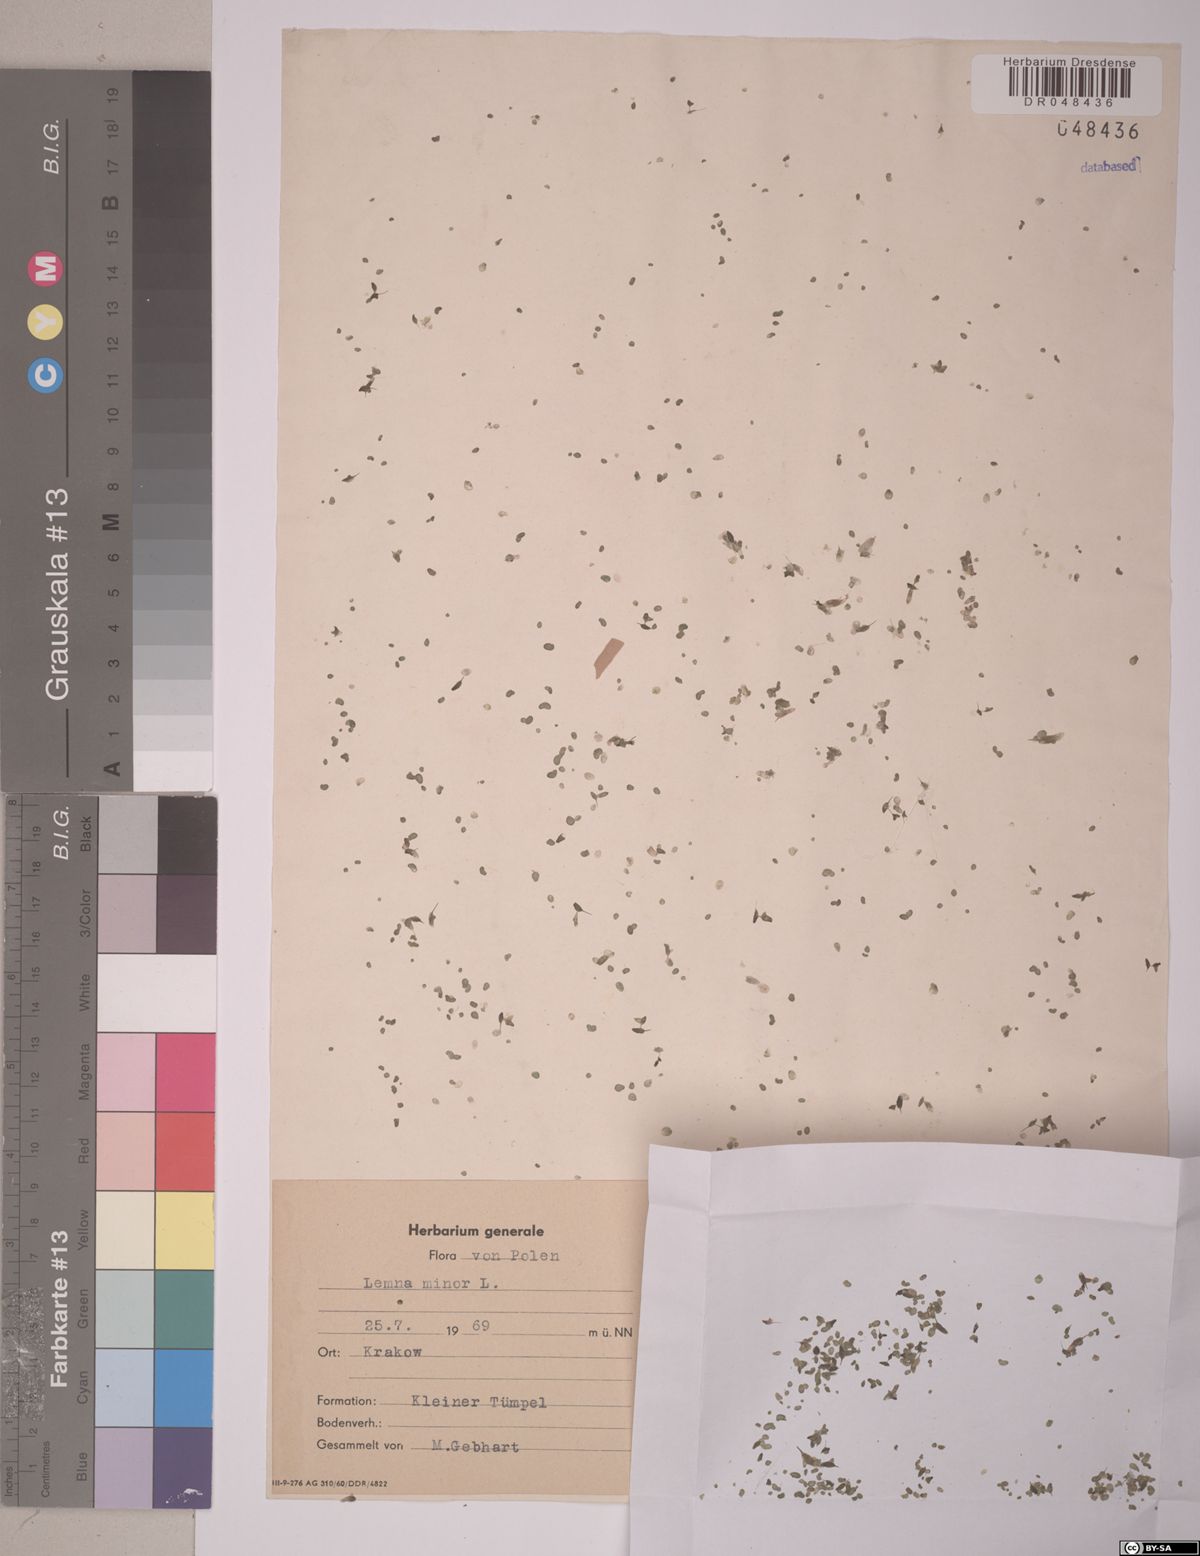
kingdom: Plantae
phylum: Tracheophyta
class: Liliopsida
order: Alismatales
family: Araceae
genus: Lemna
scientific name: Lemna minor
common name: Common duckweed
